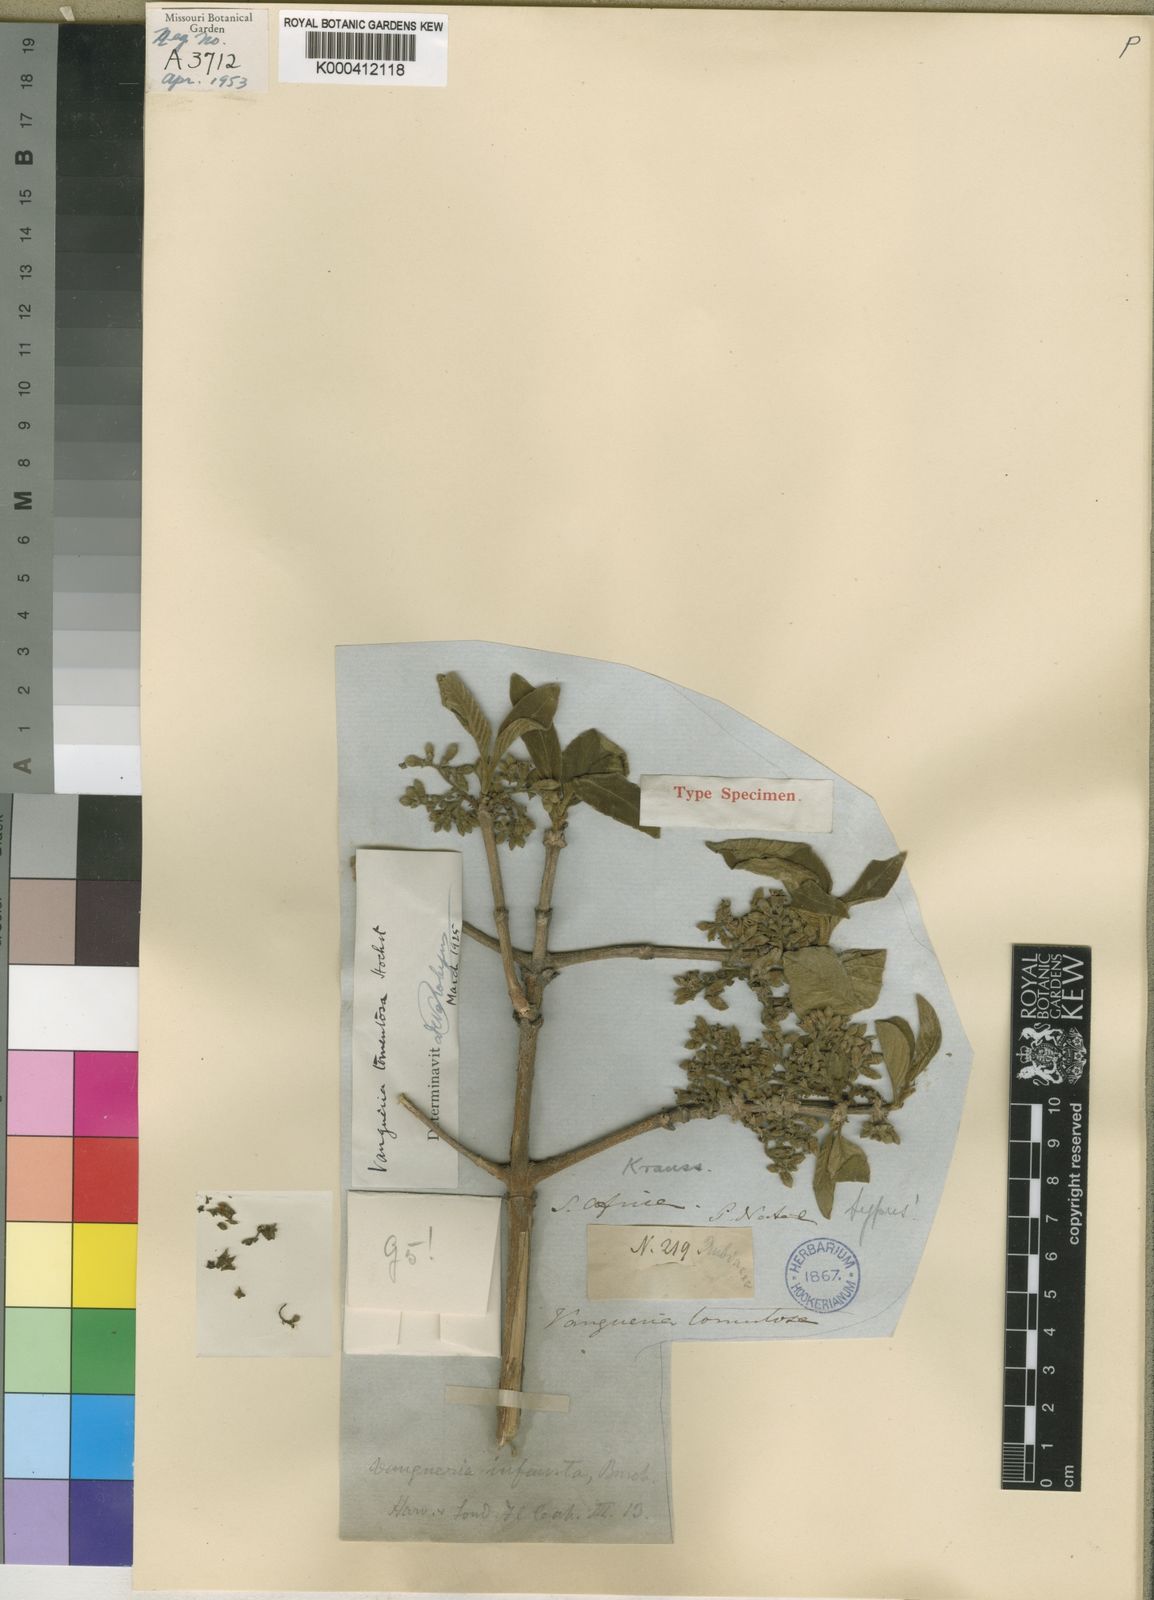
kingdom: Plantae
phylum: Tracheophyta
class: Magnoliopsida
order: Gentianales
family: Rubiaceae
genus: Vangueria
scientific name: Vangueria infausta
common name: Medlar
